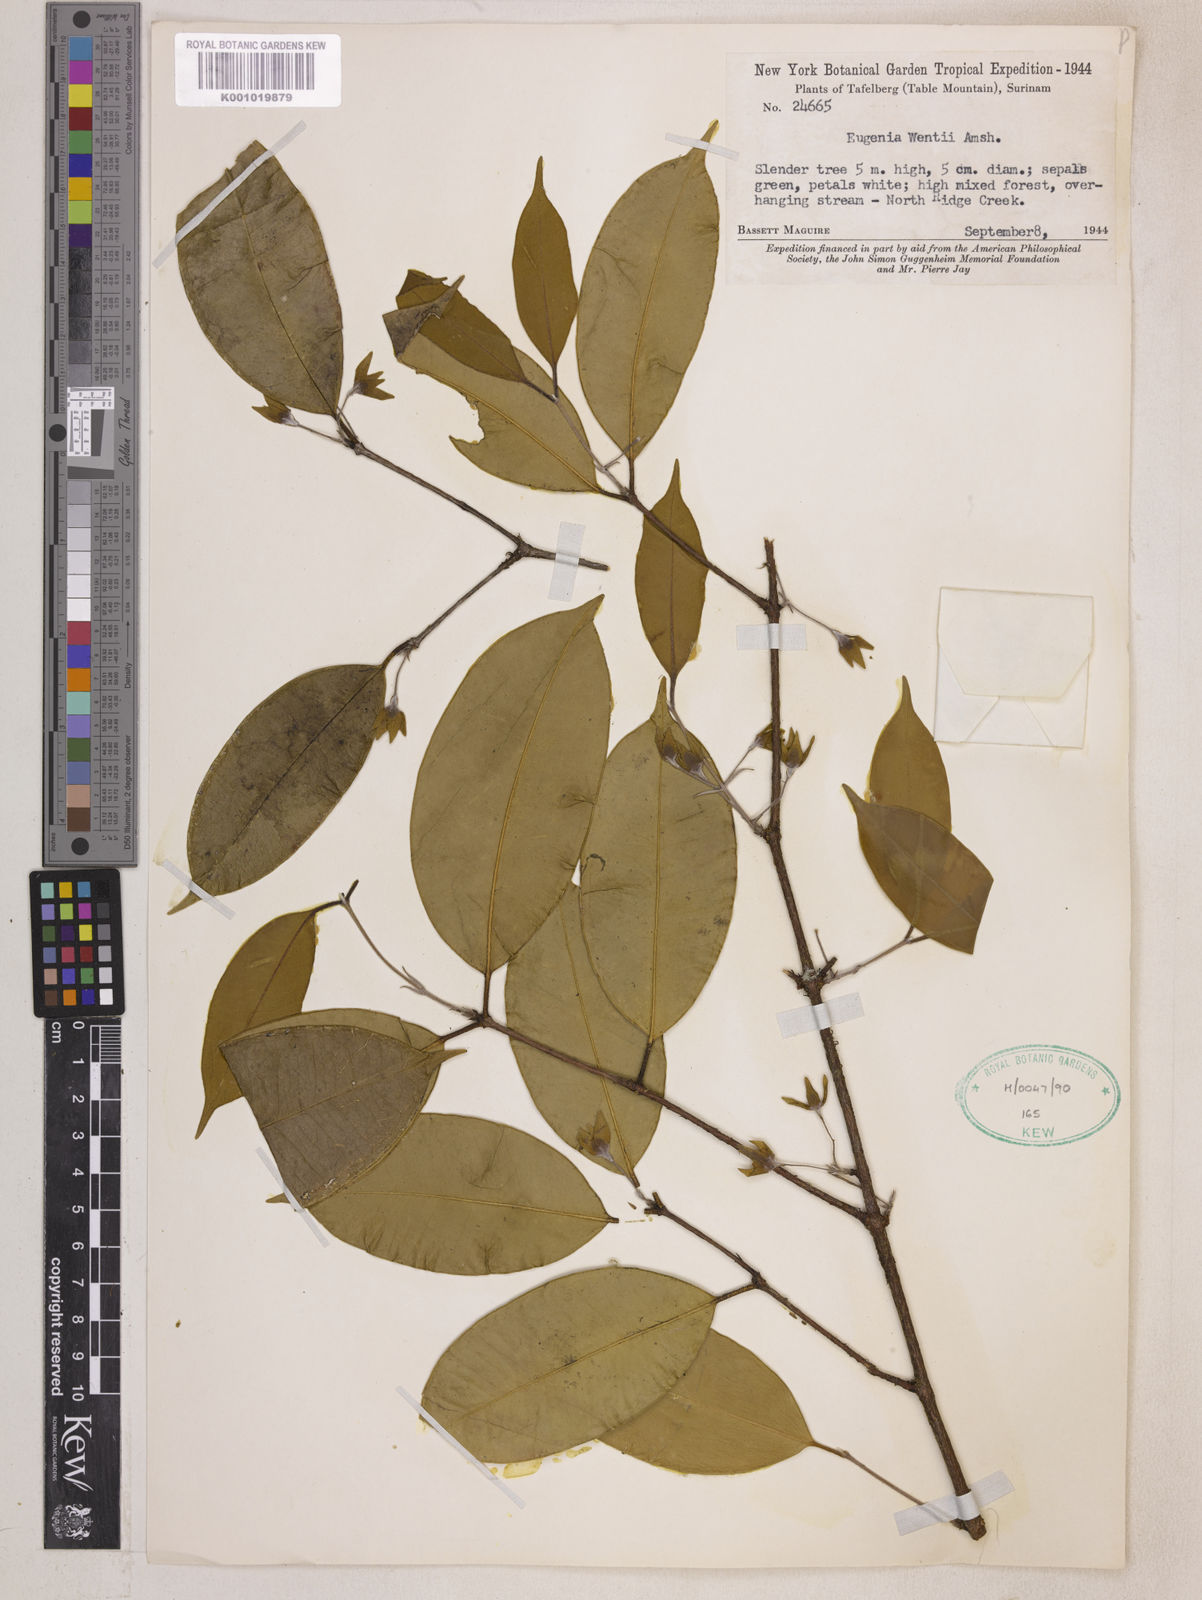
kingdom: Plantae
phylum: Tracheophyta
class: Magnoliopsida
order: Myrtales
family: Myrtaceae
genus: Eugenia
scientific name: Eugenia wentii
